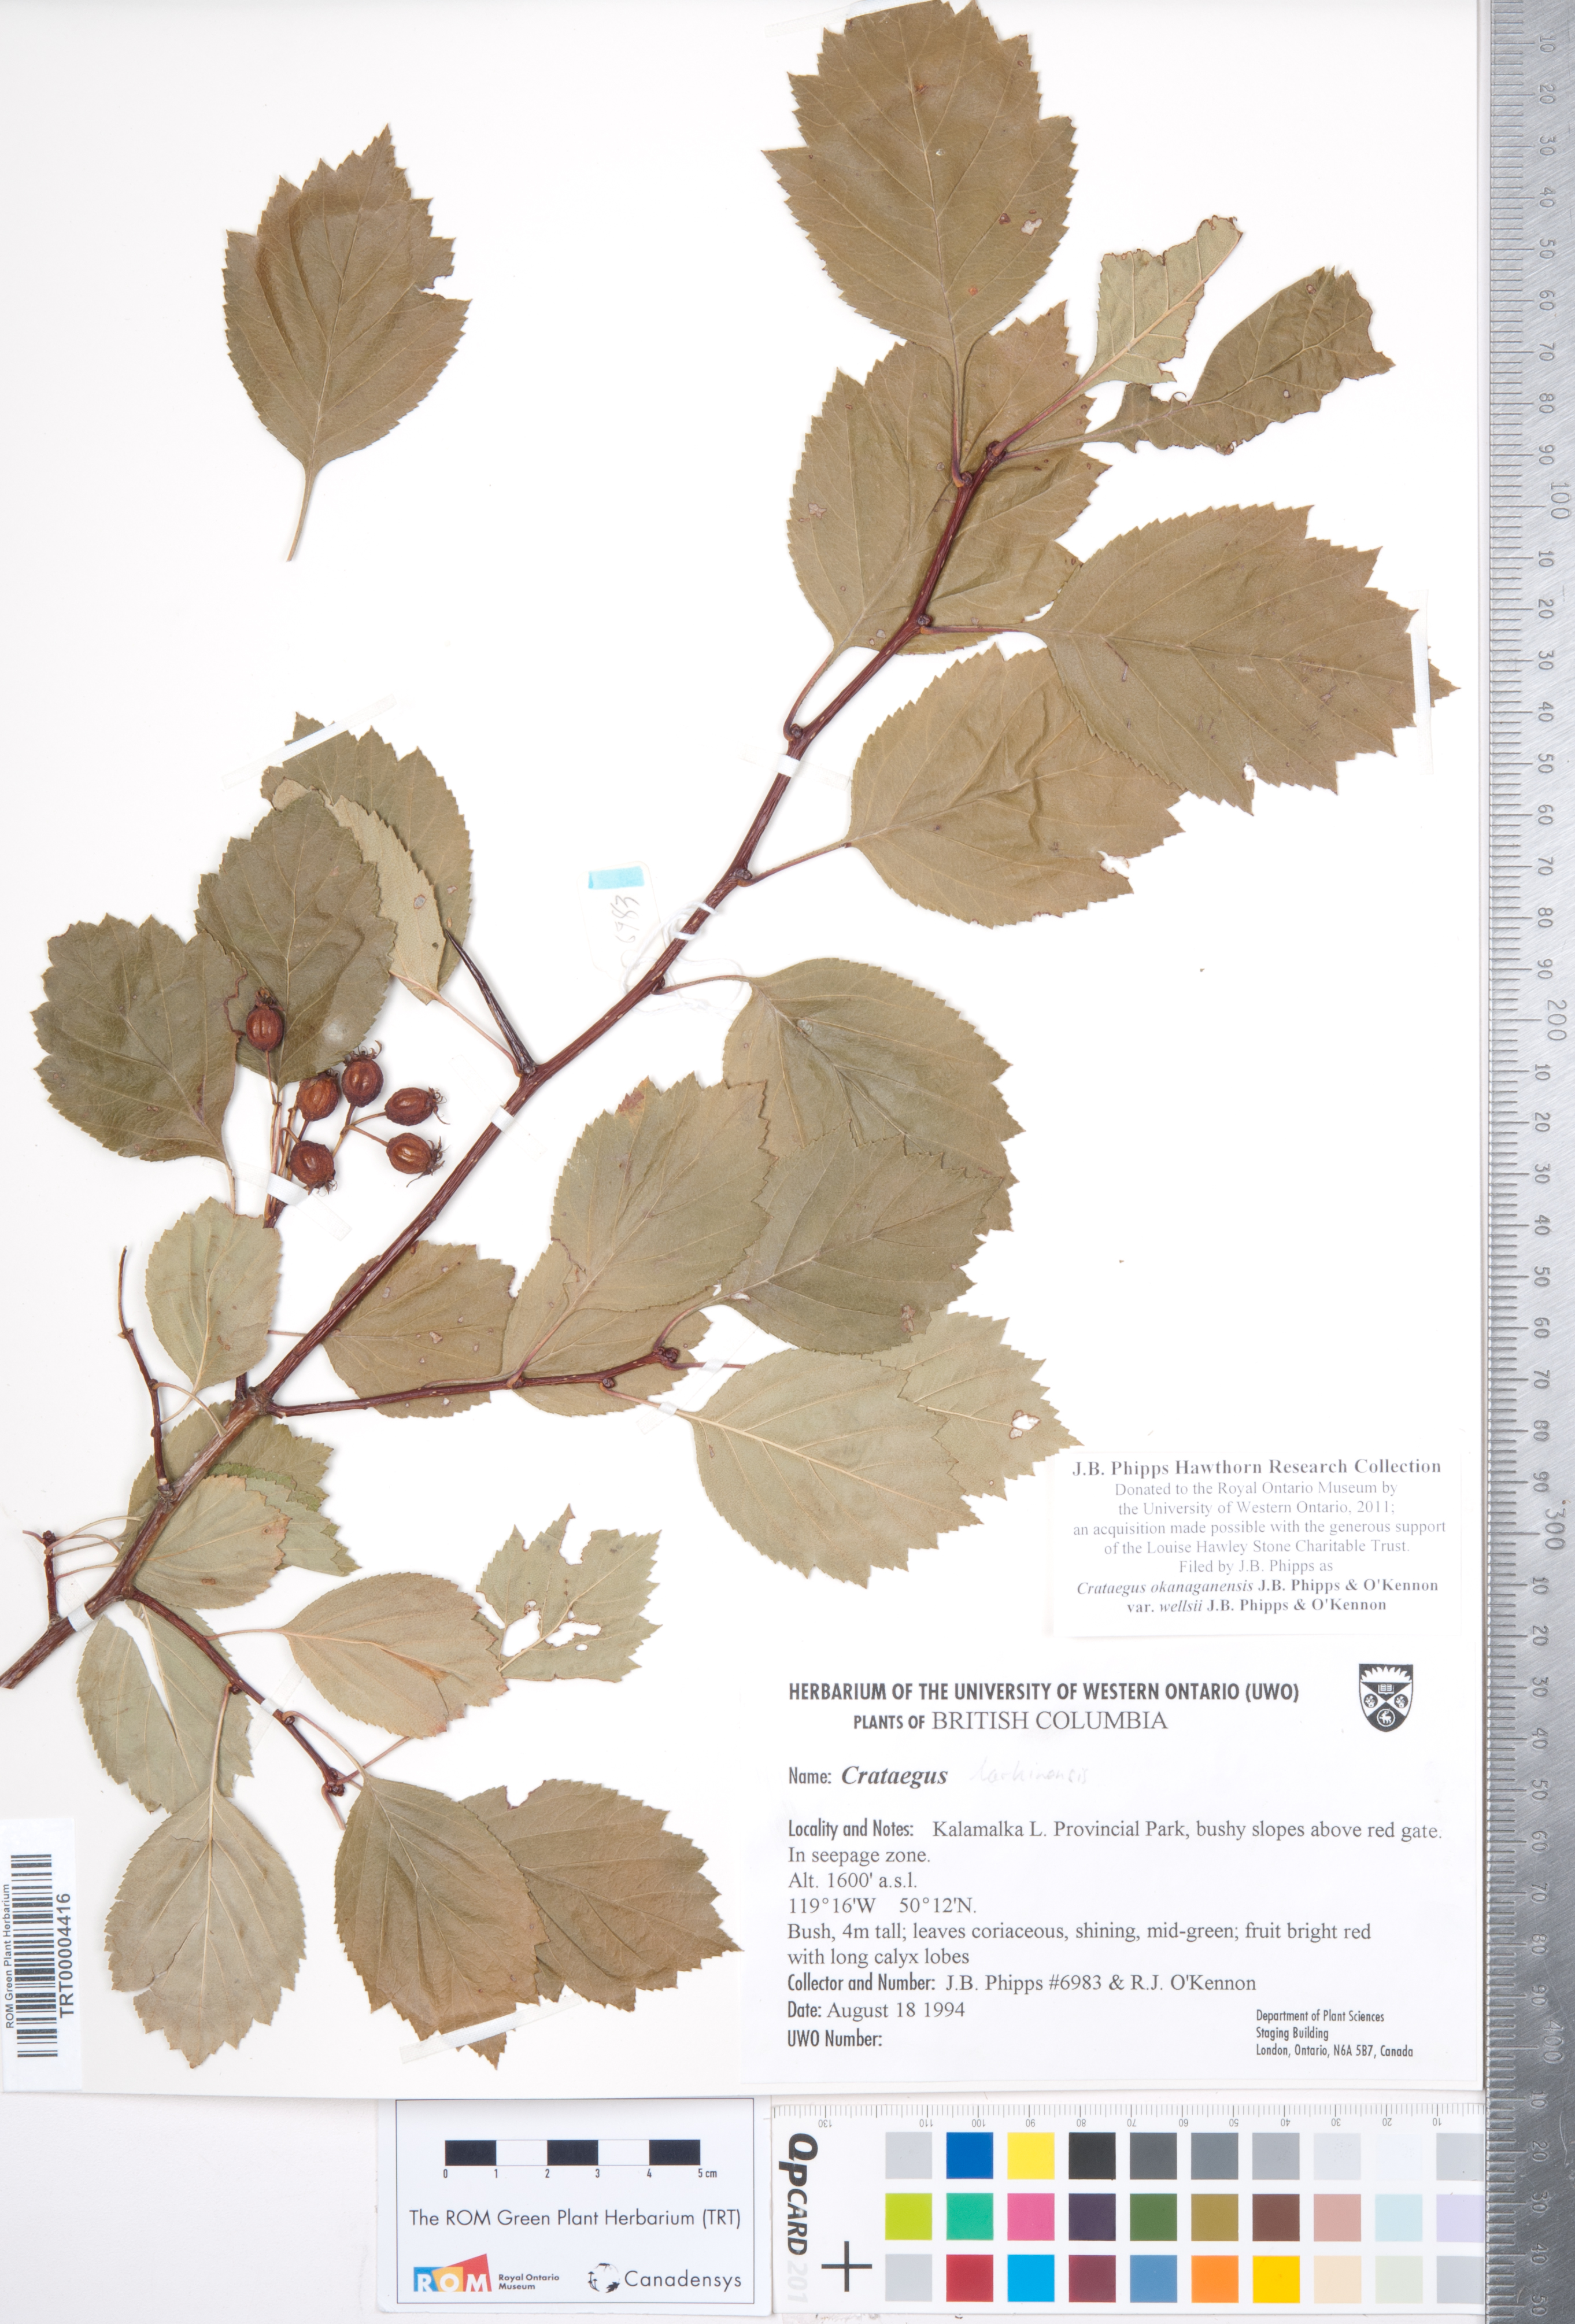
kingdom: Plantae
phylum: Tracheophyta
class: Magnoliopsida
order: Rosales
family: Rosaceae
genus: Crataegus
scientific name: Crataegus okanaganensis
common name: Okanagan valley hawthorn
